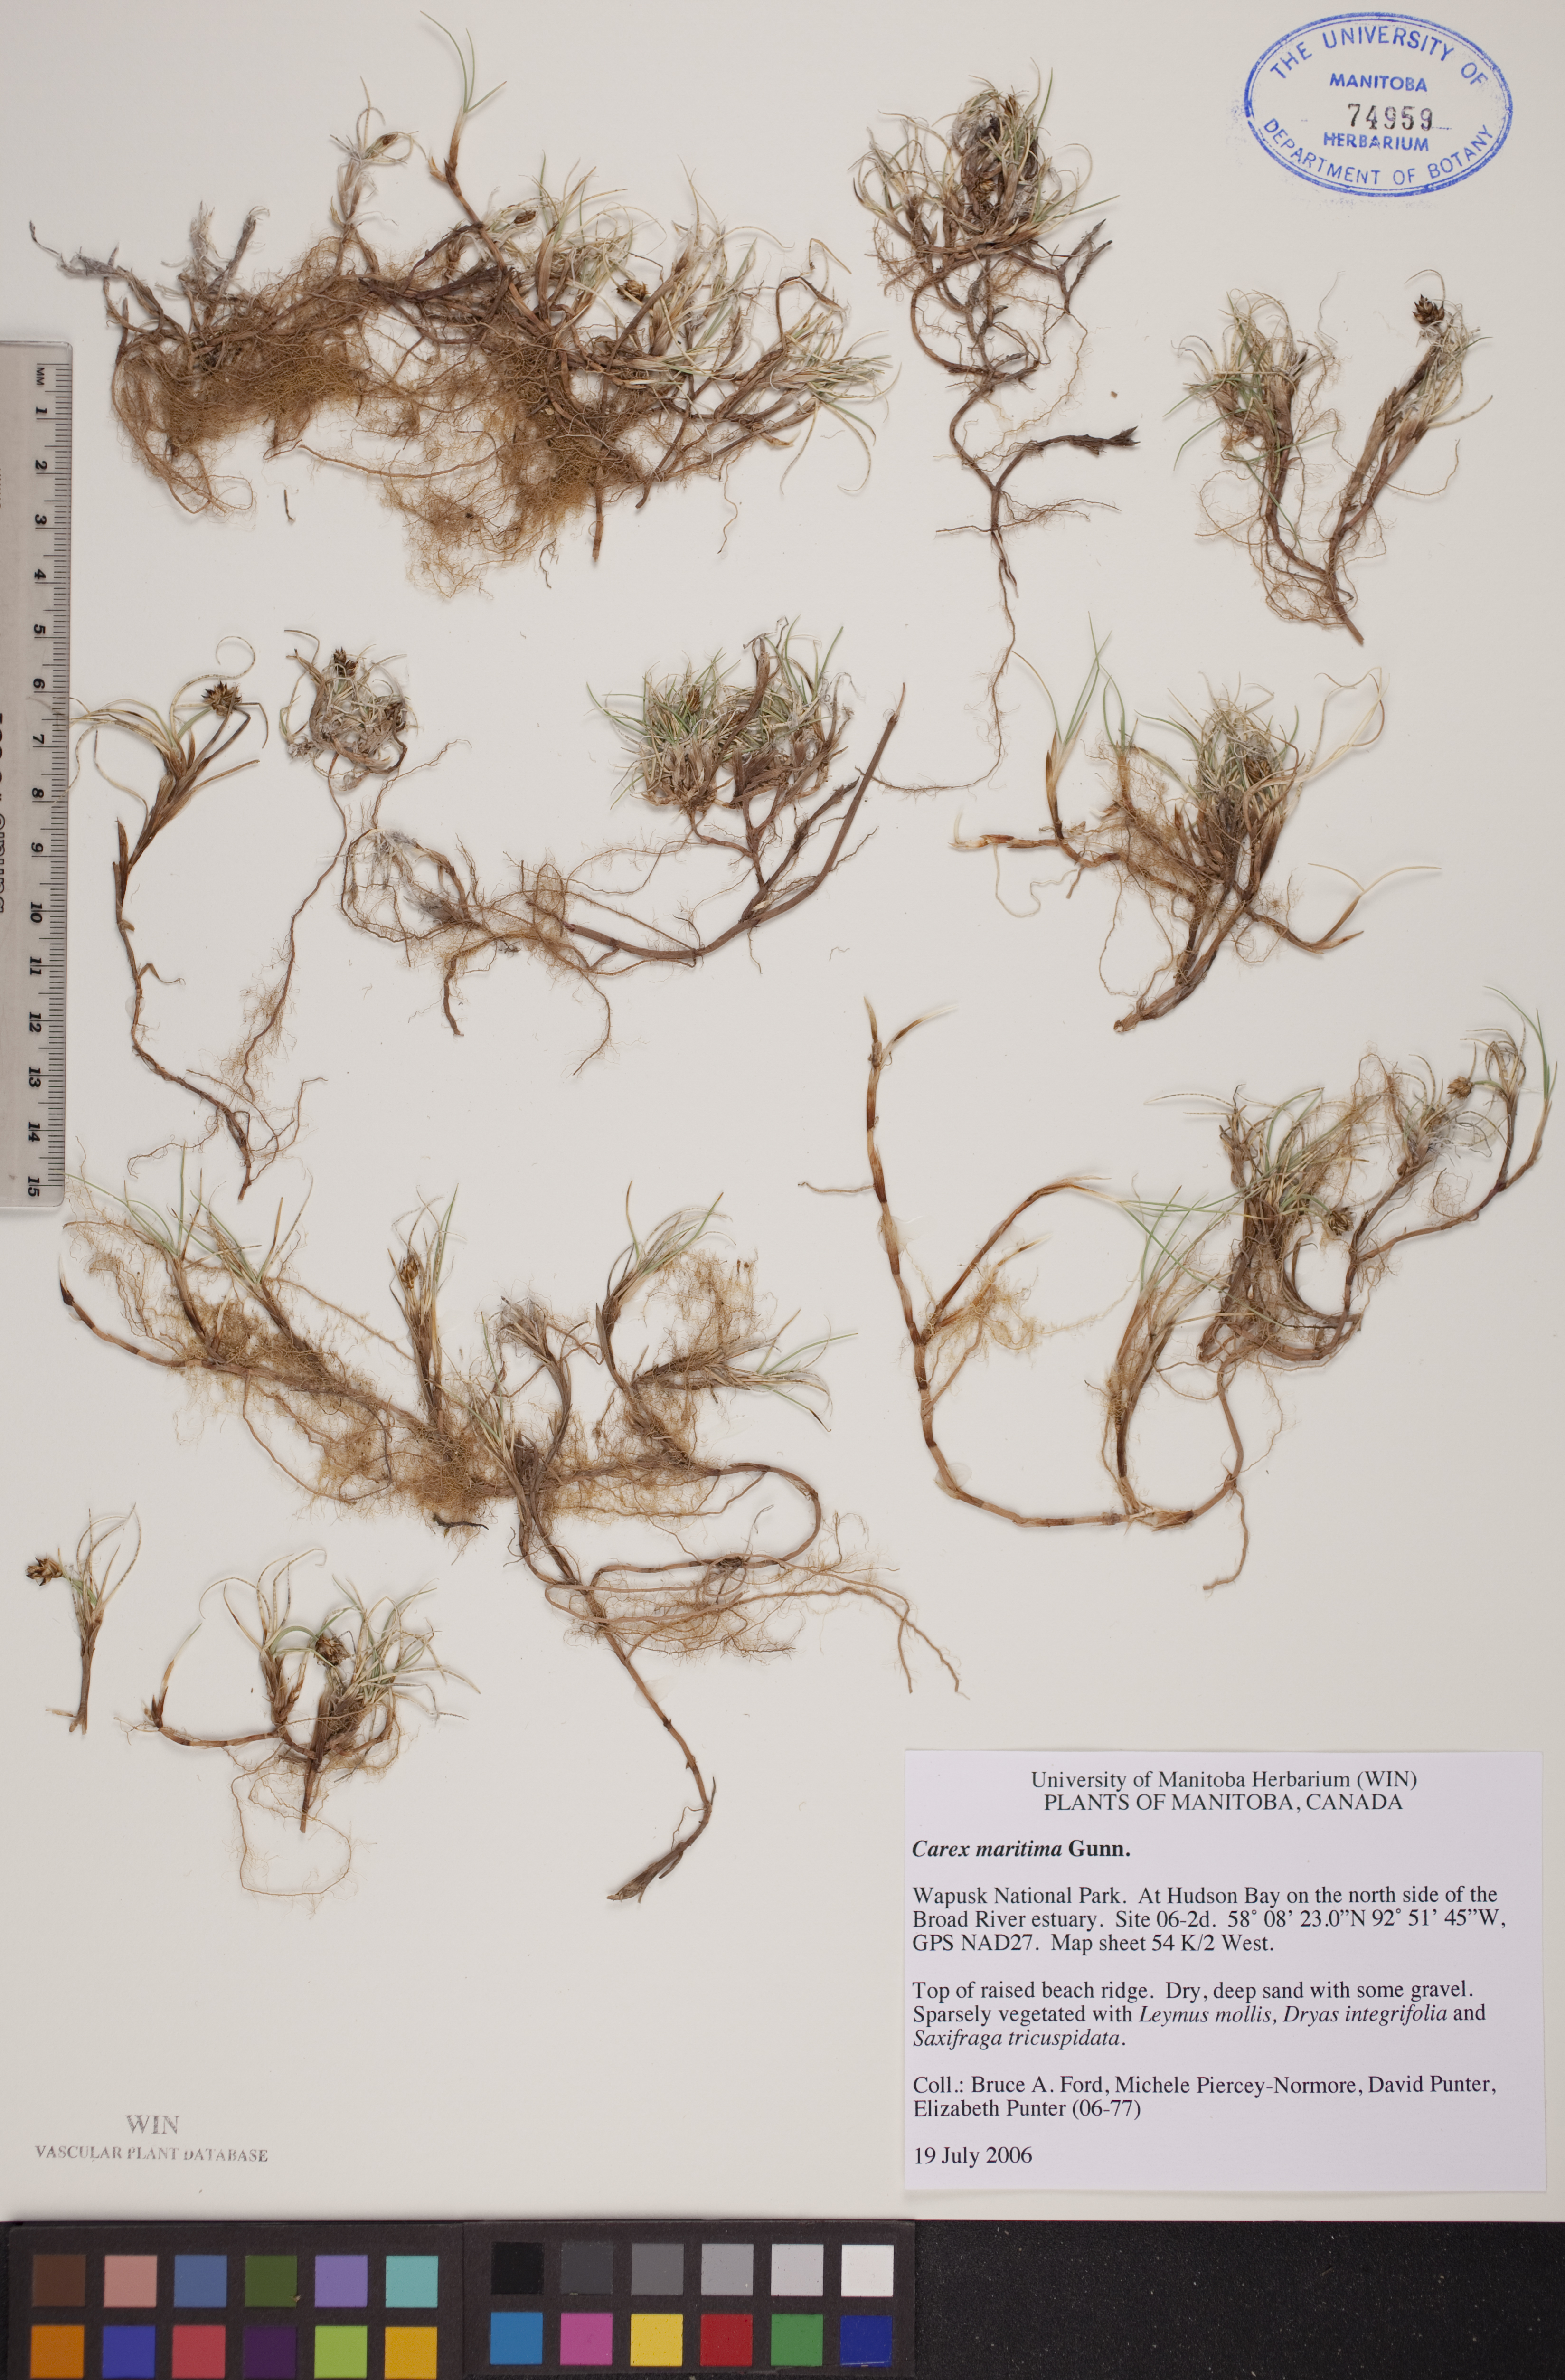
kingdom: Plantae
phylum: Tracheophyta
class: Liliopsida
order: Poales
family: Cyperaceae
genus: Carex
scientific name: Carex maritima
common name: Curved sedge
